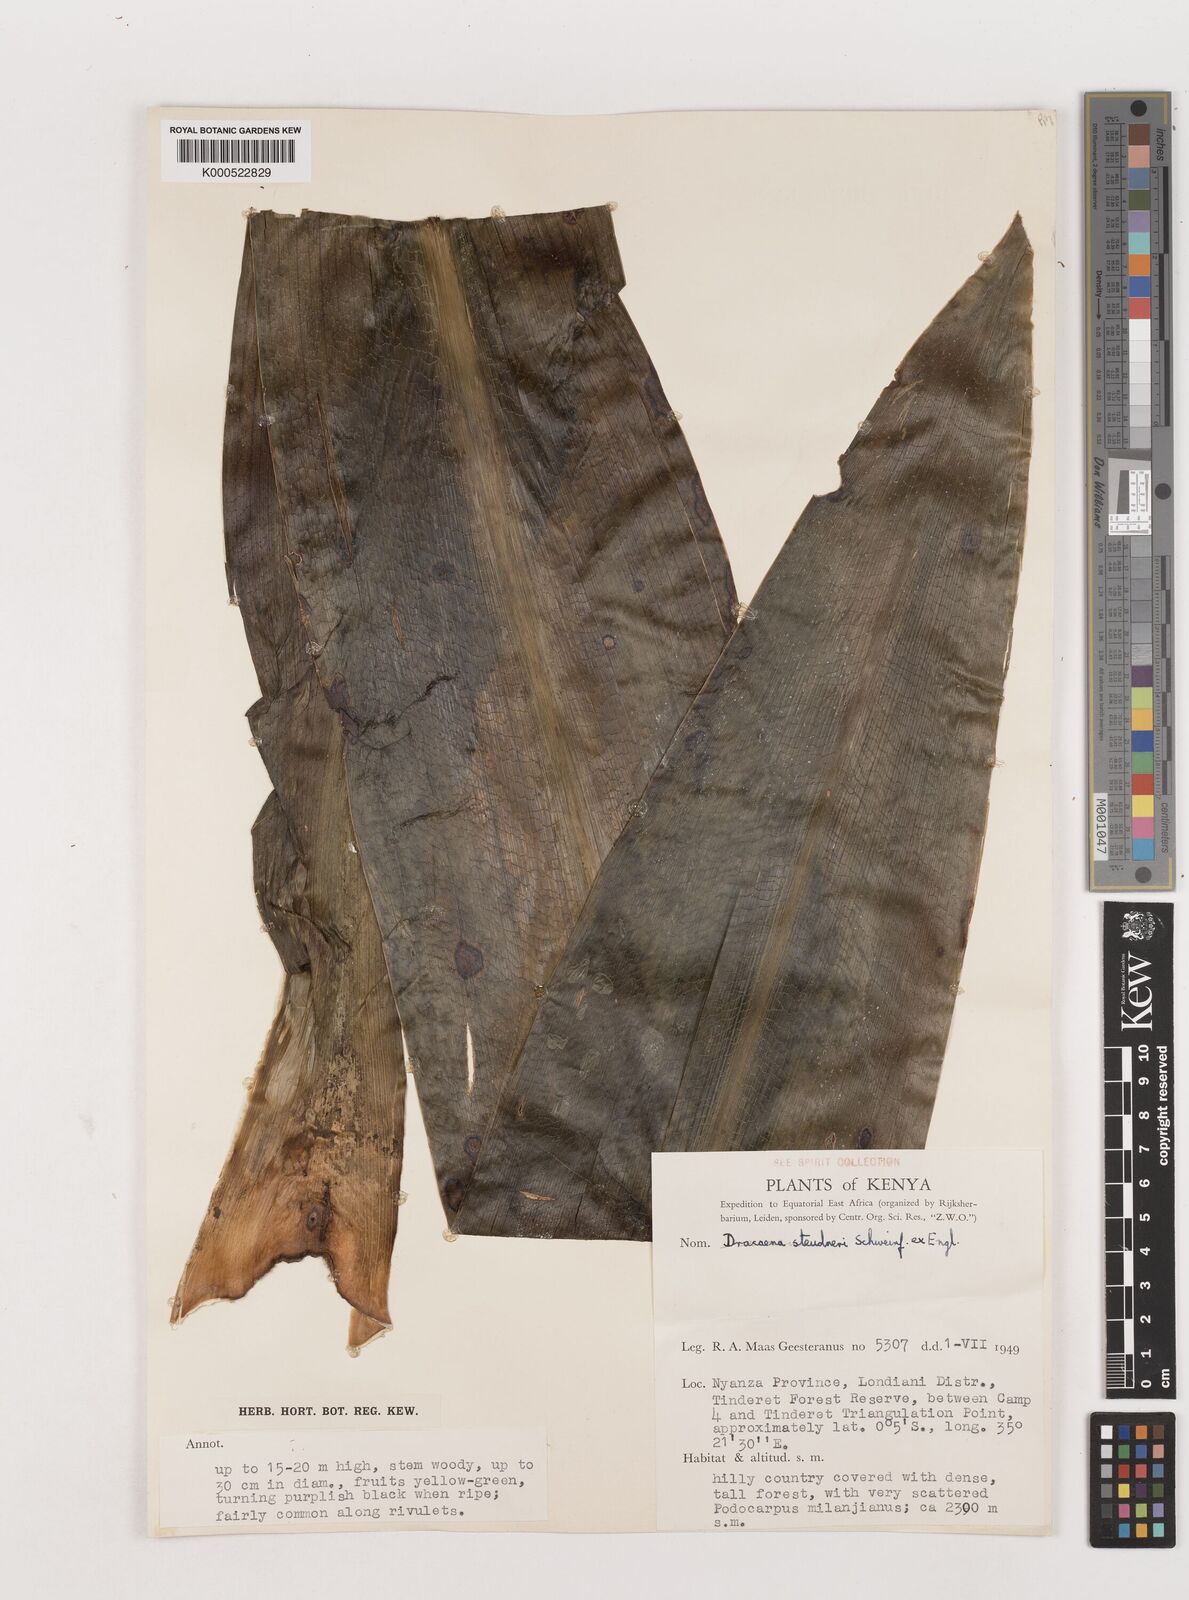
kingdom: Plantae
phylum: Tracheophyta
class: Liliopsida
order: Asparagales
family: Asparagaceae
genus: Dracaena
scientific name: Dracaena steudneri
